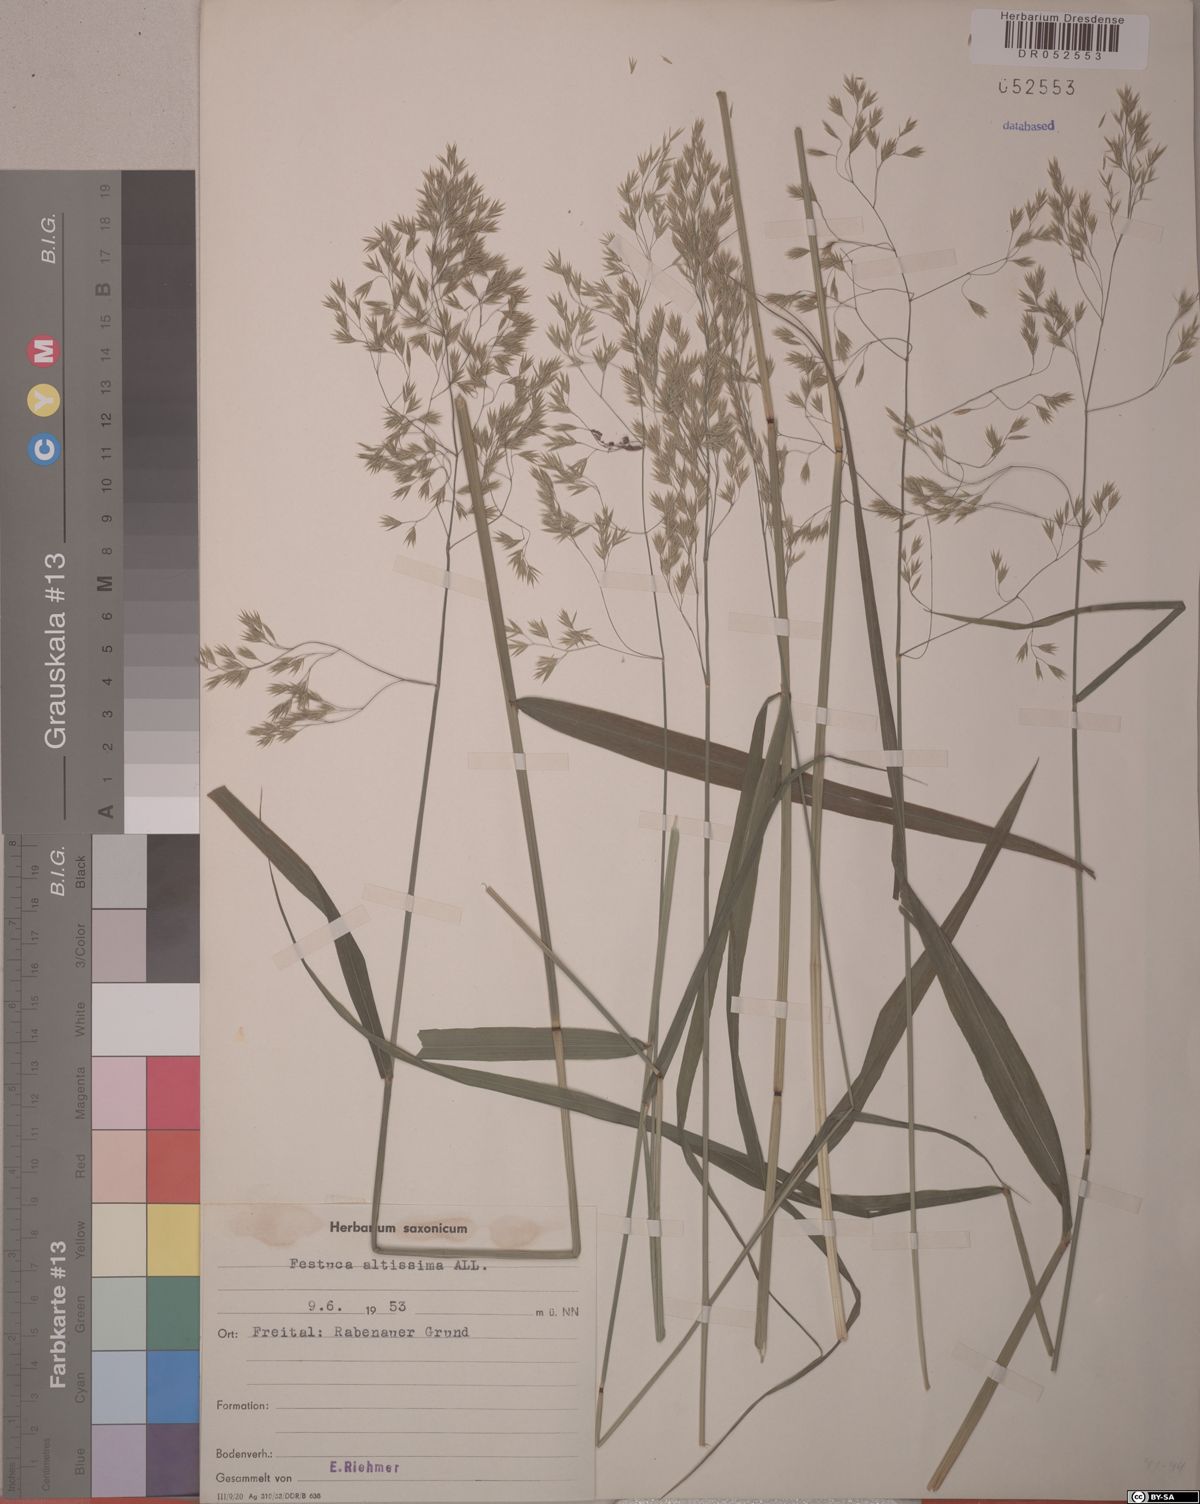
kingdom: Plantae
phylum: Tracheophyta
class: Liliopsida
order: Poales
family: Poaceae
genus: Festuca
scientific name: Festuca altissima
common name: Wood fescue
